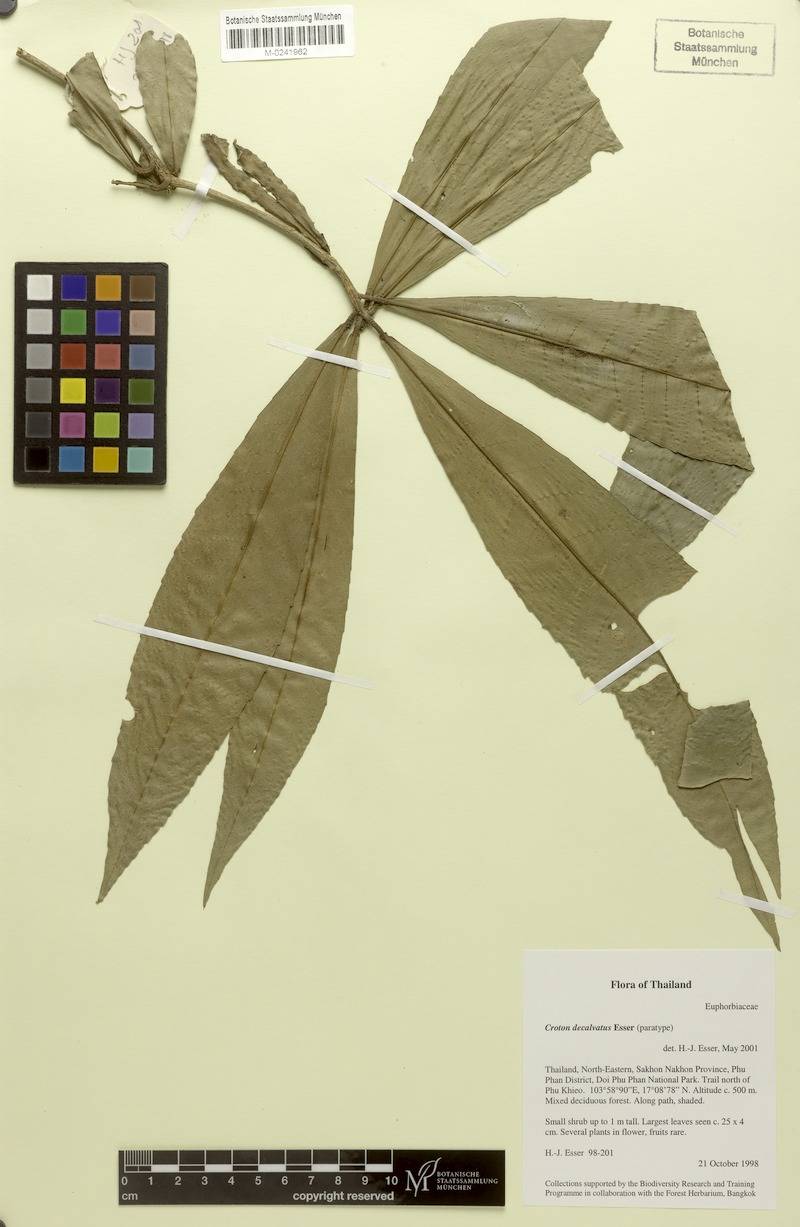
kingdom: Plantae
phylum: Tracheophyta
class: Magnoliopsida
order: Malpighiales
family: Euphorbiaceae
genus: Croton
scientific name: Croton decalvatus
